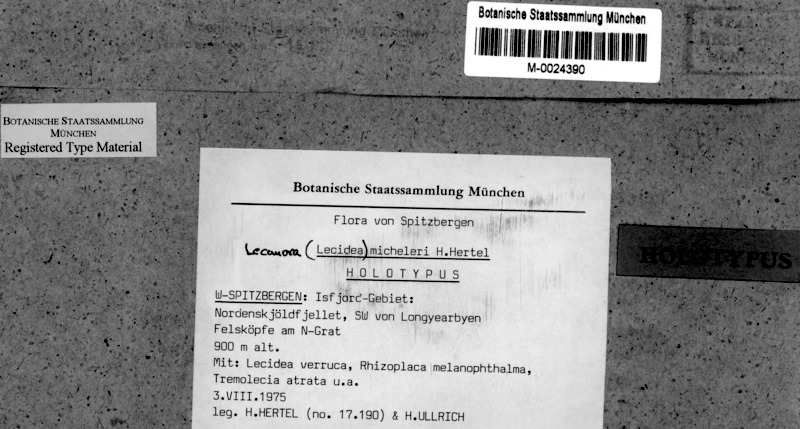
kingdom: Fungi
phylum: Ascomycota
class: Lecanoromycetes
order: Lecanorales
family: Lecanoraceae
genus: Lecanora
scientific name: Lecanora micheleri
